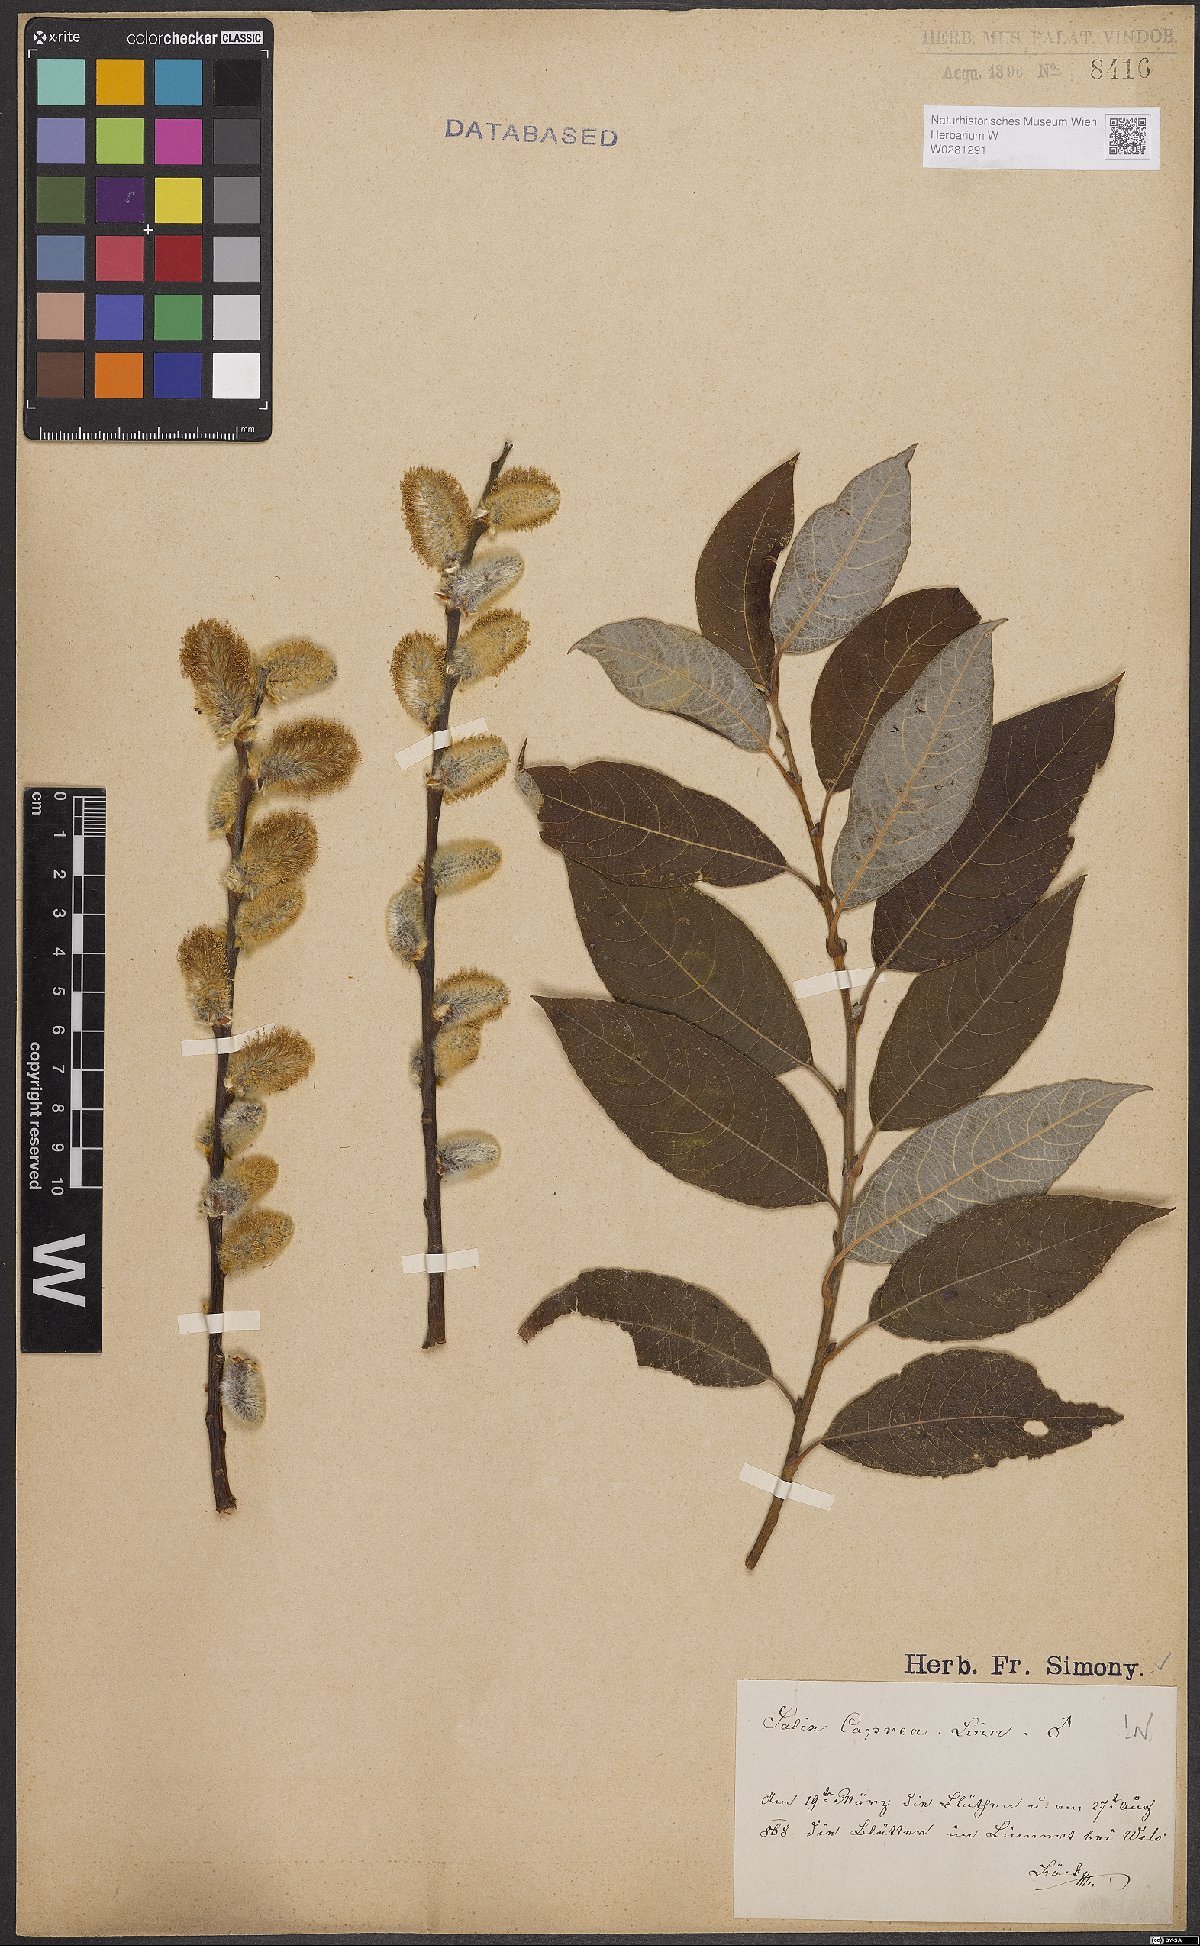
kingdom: Plantae
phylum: Tracheophyta
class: Magnoliopsida
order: Malpighiales
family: Salicaceae
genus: Salix
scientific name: Salix caprea
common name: Goat willow
